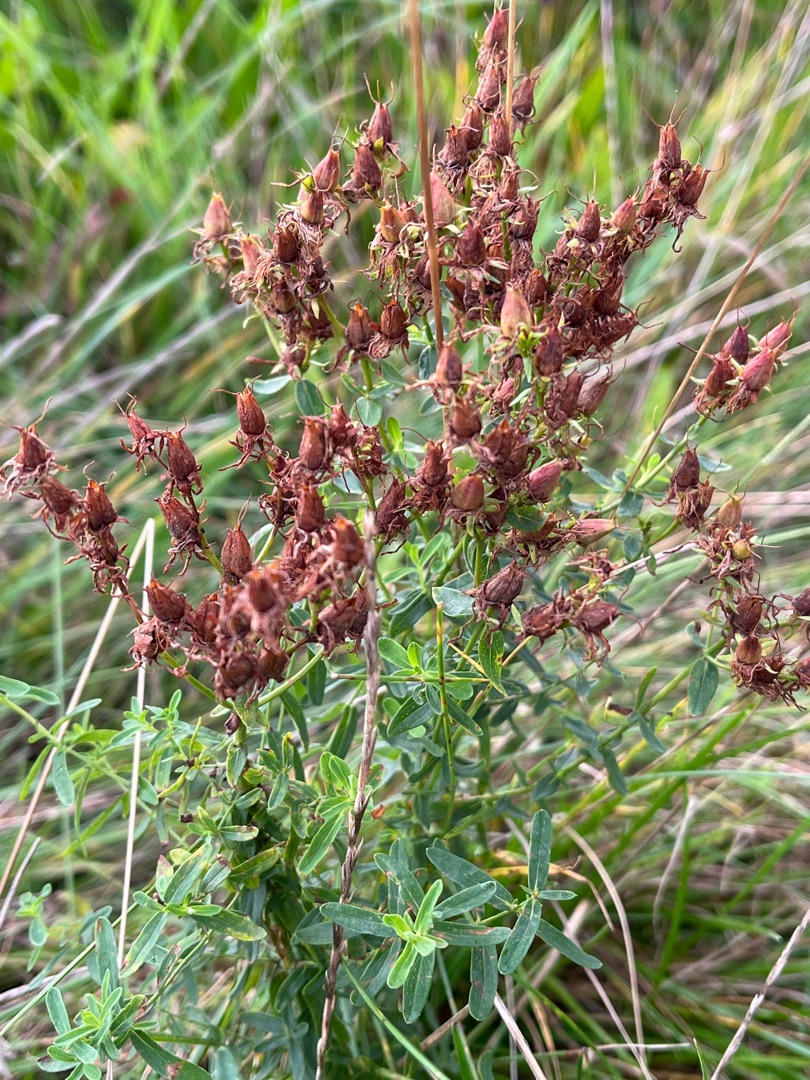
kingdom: Plantae
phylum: Tracheophyta
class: Magnoliopsida
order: Malpighiales
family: Hypericaceae
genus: Hypericum
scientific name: Hypericum perforatum
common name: Prikbladet perikon
